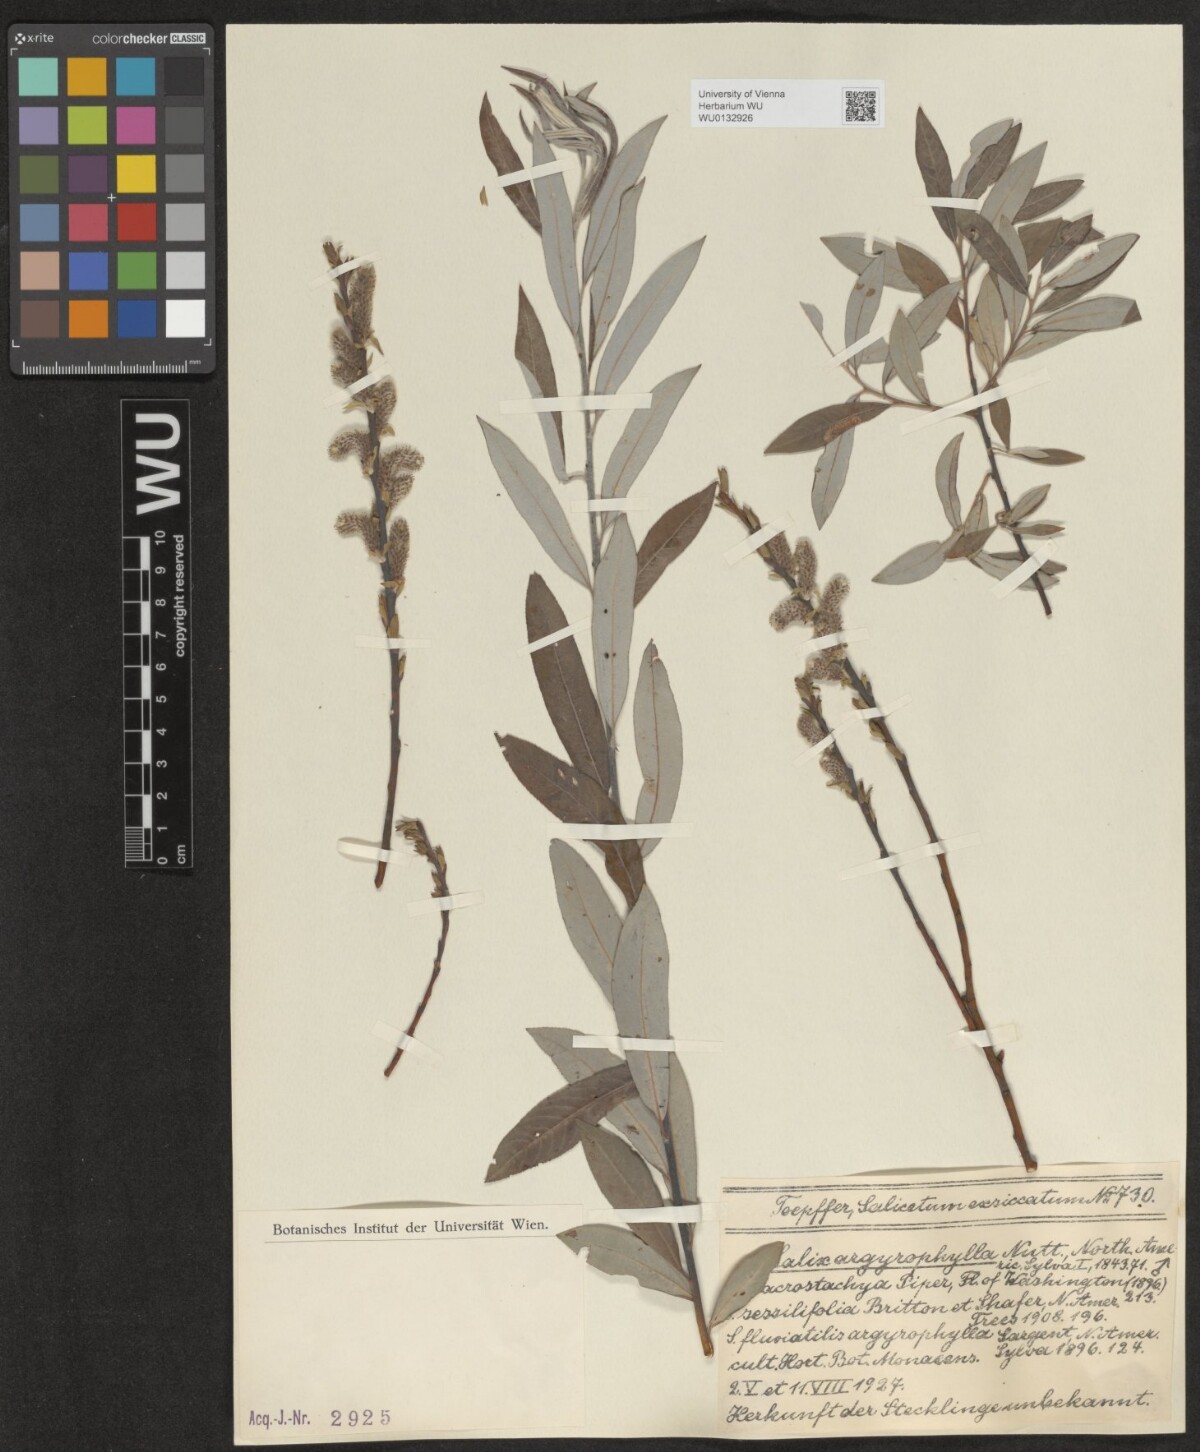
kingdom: Plantae
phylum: Tracheophyta
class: Magnoliopsida
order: Malpighiales
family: Salicaceae
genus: Salix
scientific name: Salix pantosericea
